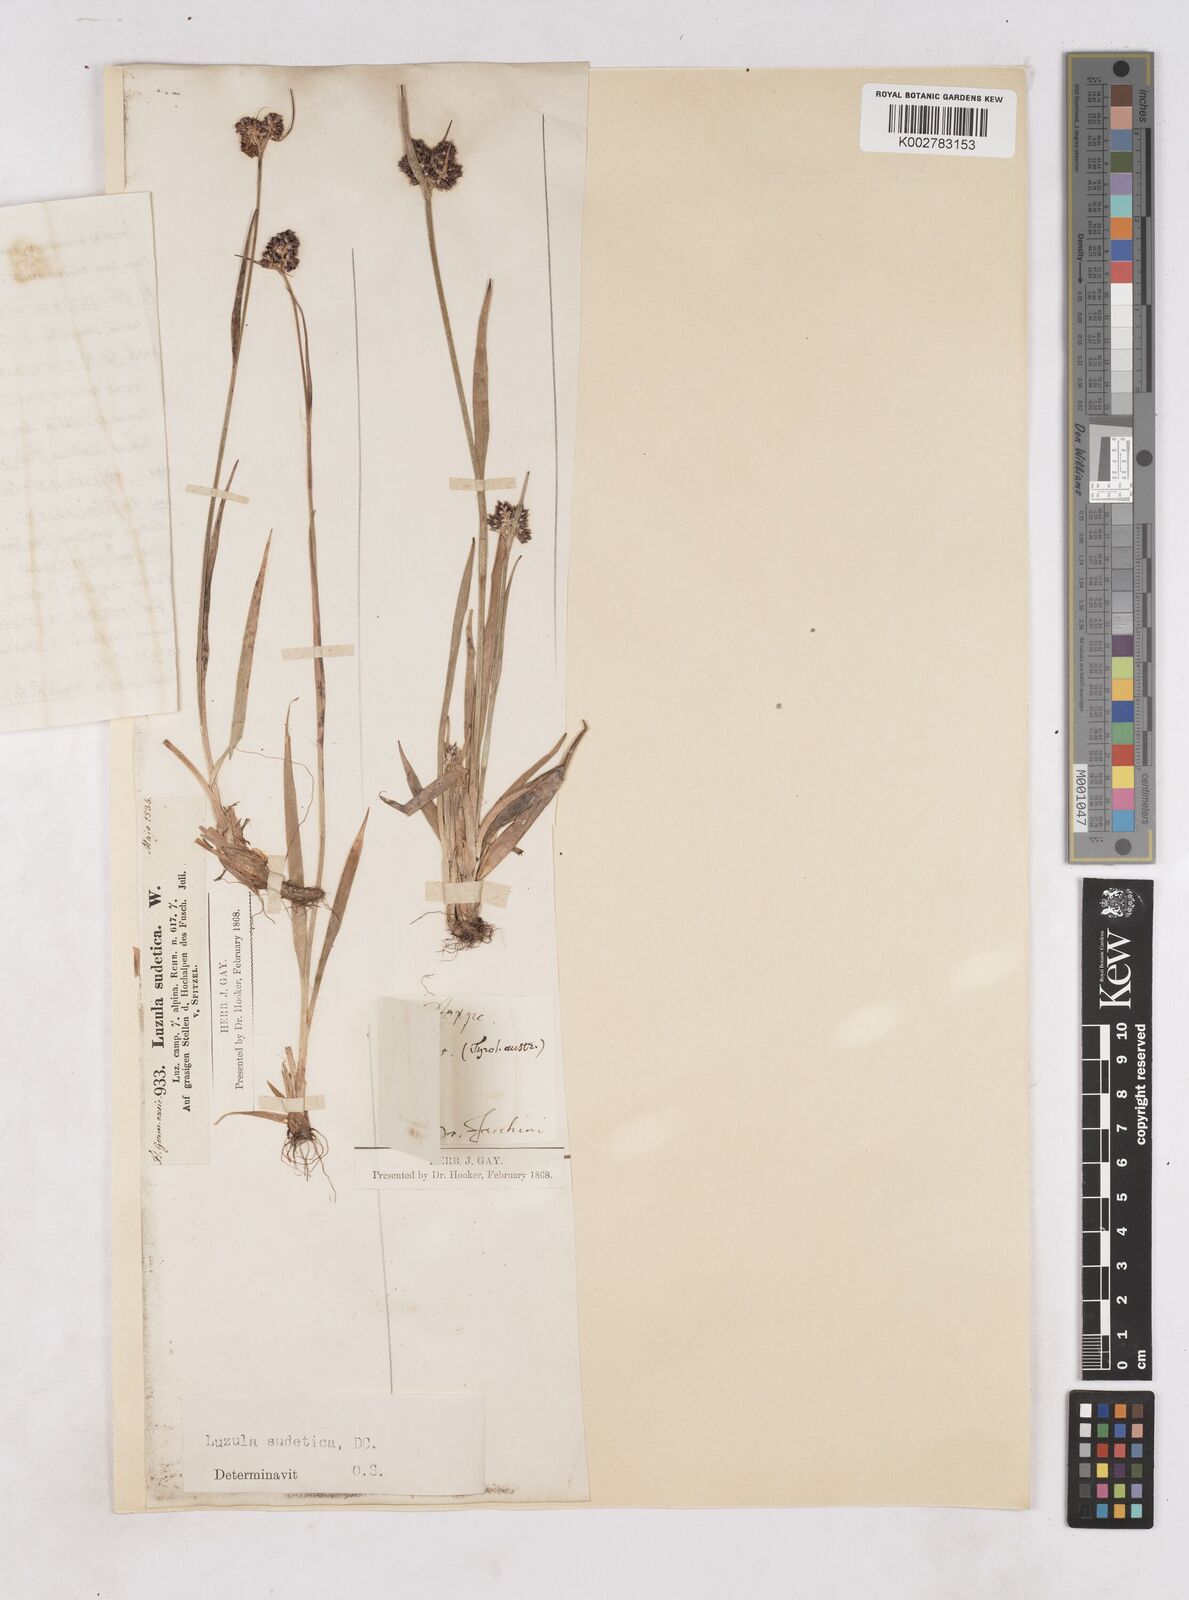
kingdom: Plantae
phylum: Tracheophyta
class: Liliopsida
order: Poales
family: Juncaceae
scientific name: Juncaceae
